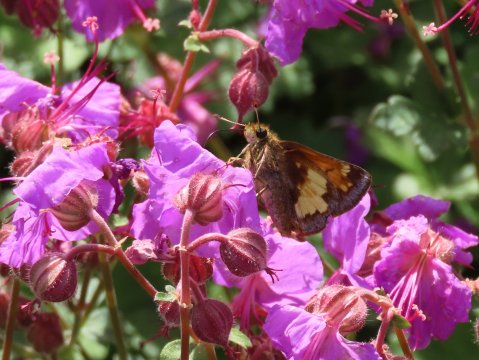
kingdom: Animalia
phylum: Arthropoda
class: Insecta
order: Lepidoptera
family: Hesperiidae
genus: Lon
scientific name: Lon hobomok
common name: Hobomok Skipper
